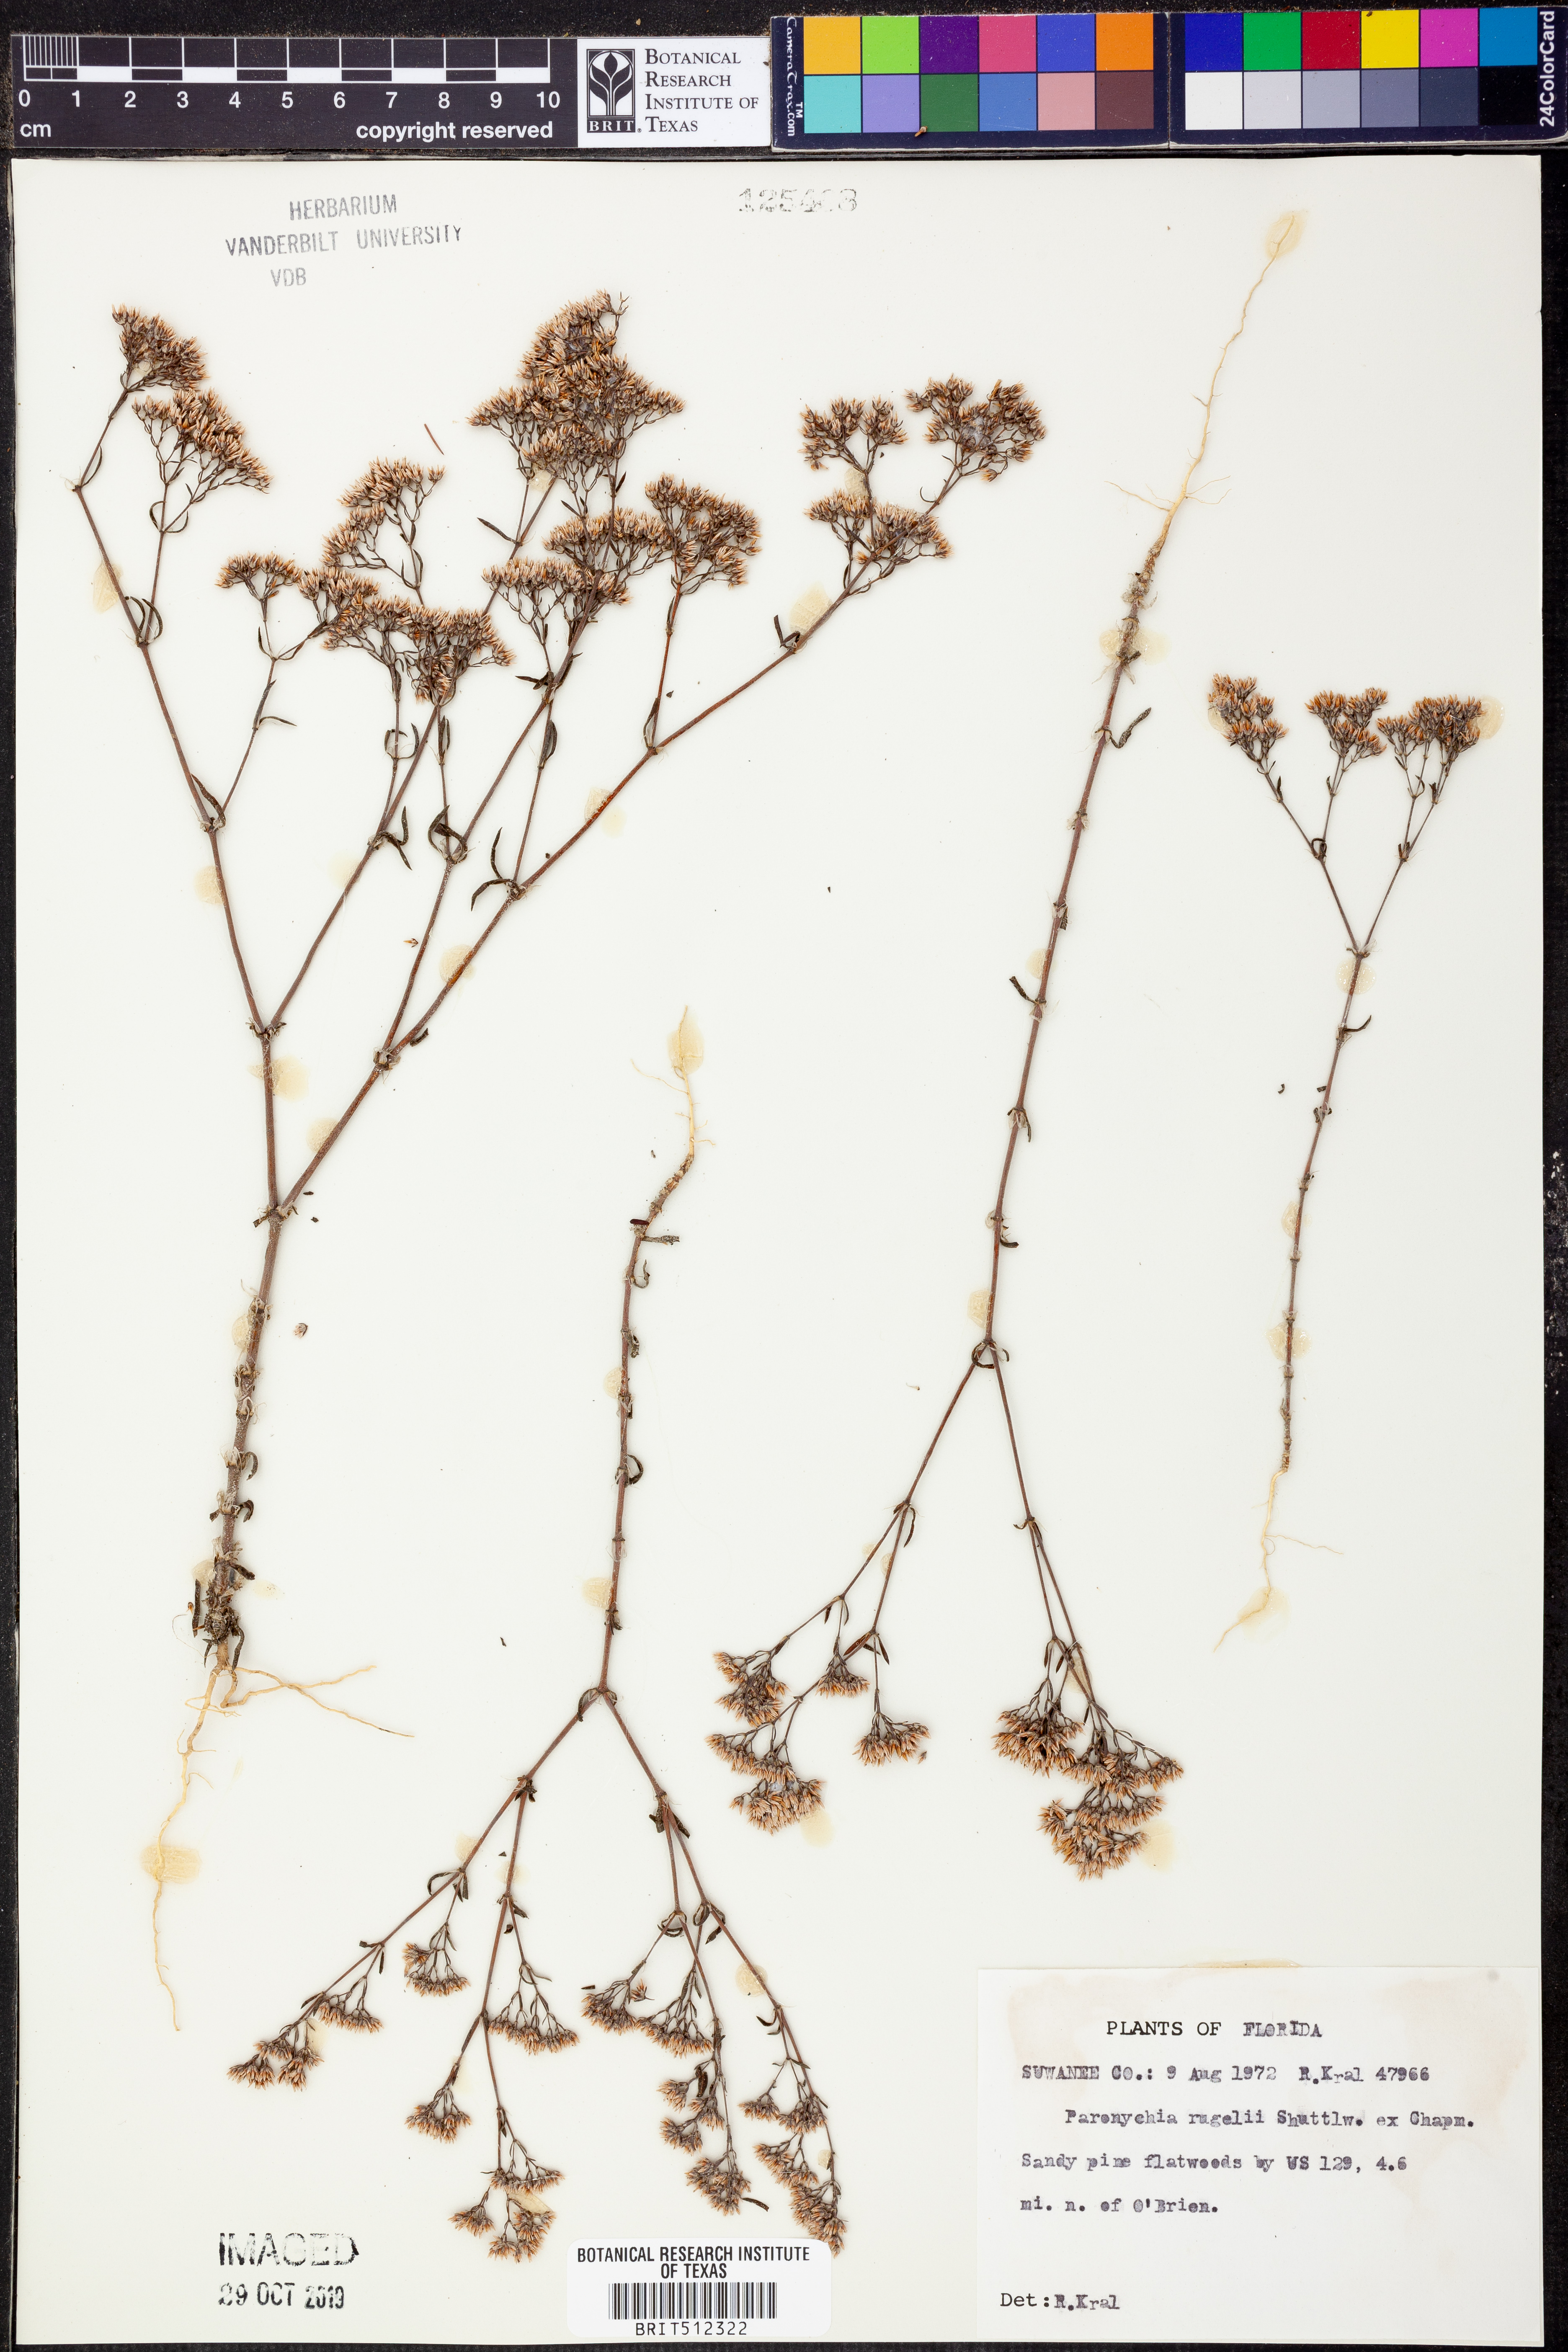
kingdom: Plantae
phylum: Tracheophyta
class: Magnoliopsida
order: Caryophyllales
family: Caryophyllaceae
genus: Paronychia
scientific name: Paronychia rugelii
